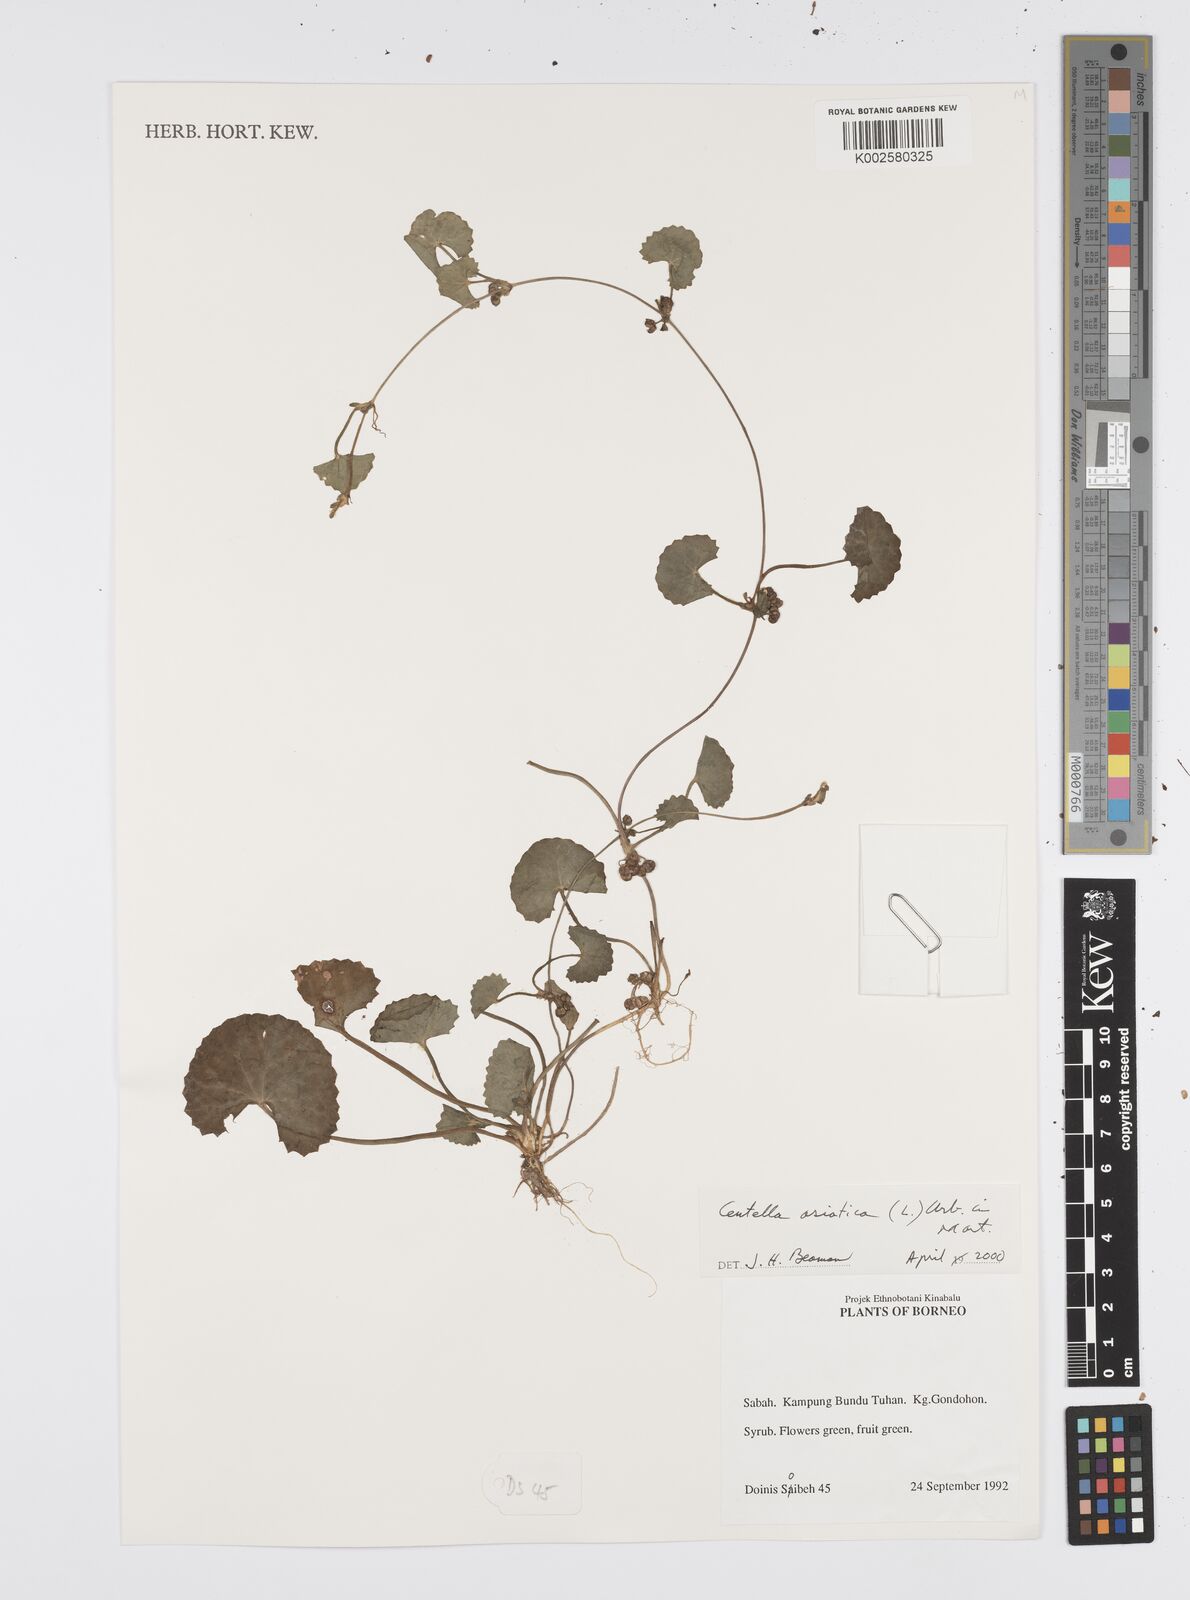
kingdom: Plantae
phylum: Tracheophyta
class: Magnoliopsida
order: Apiales
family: Apiaceae
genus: Centella
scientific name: Centella asiatica
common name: Spadeleaf
